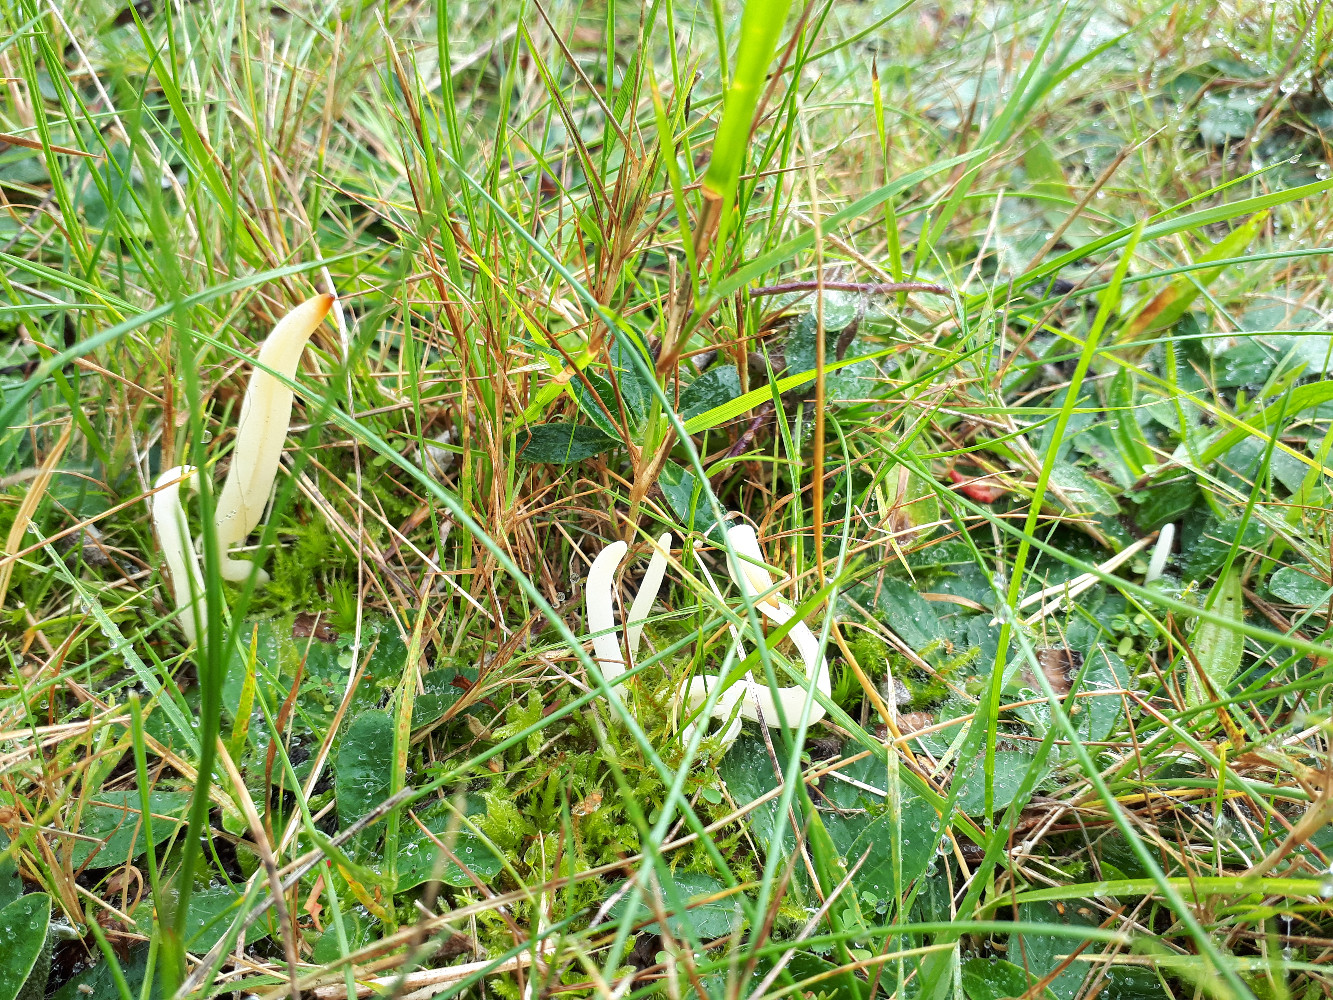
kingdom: Fungi
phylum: Basidiomycota
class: Agaricomycetes
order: Agaricales
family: Clavariaceae
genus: Clavaria
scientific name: Clavaria falcata
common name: hvid køllesvamp
